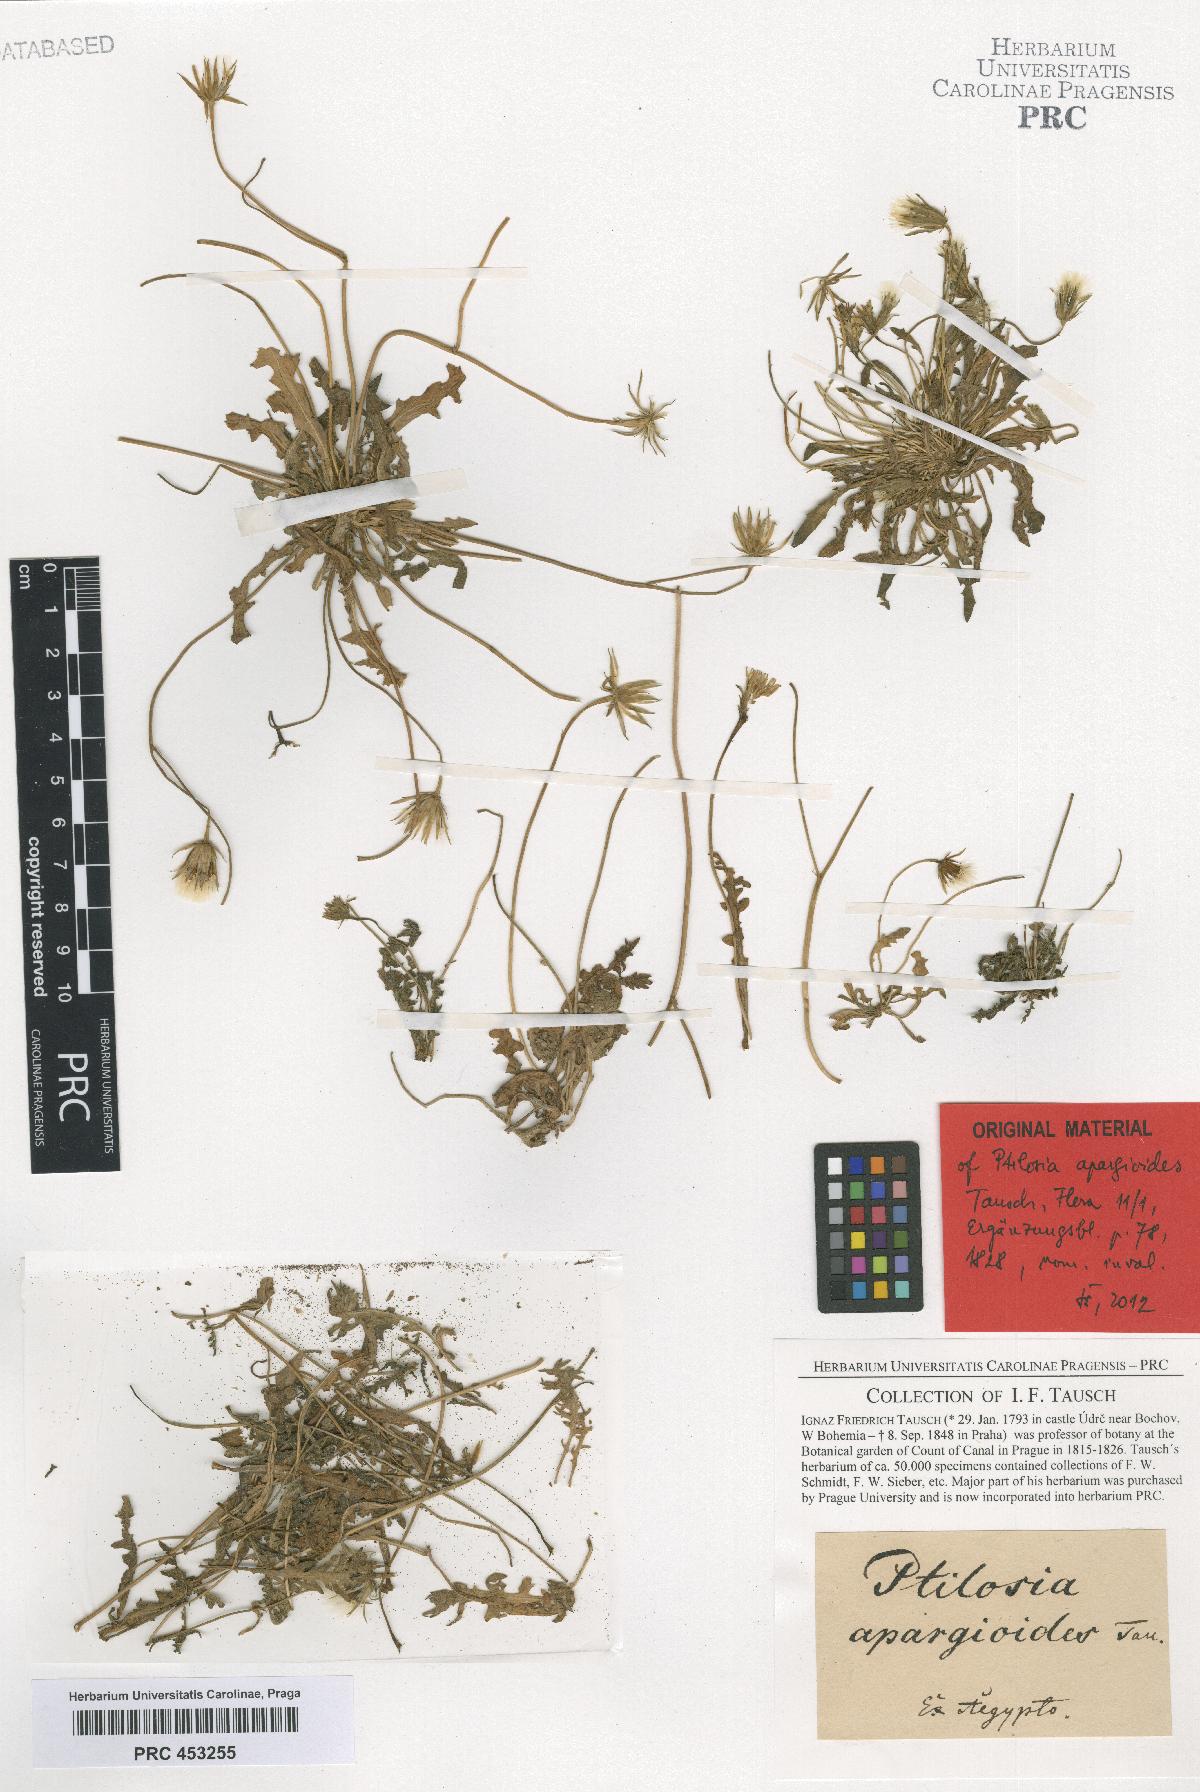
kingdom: Plantae
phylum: Tracheophyta
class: Magnoliopsida
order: Asterales
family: Asteraceae
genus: Picris
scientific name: Picris sulphurea
